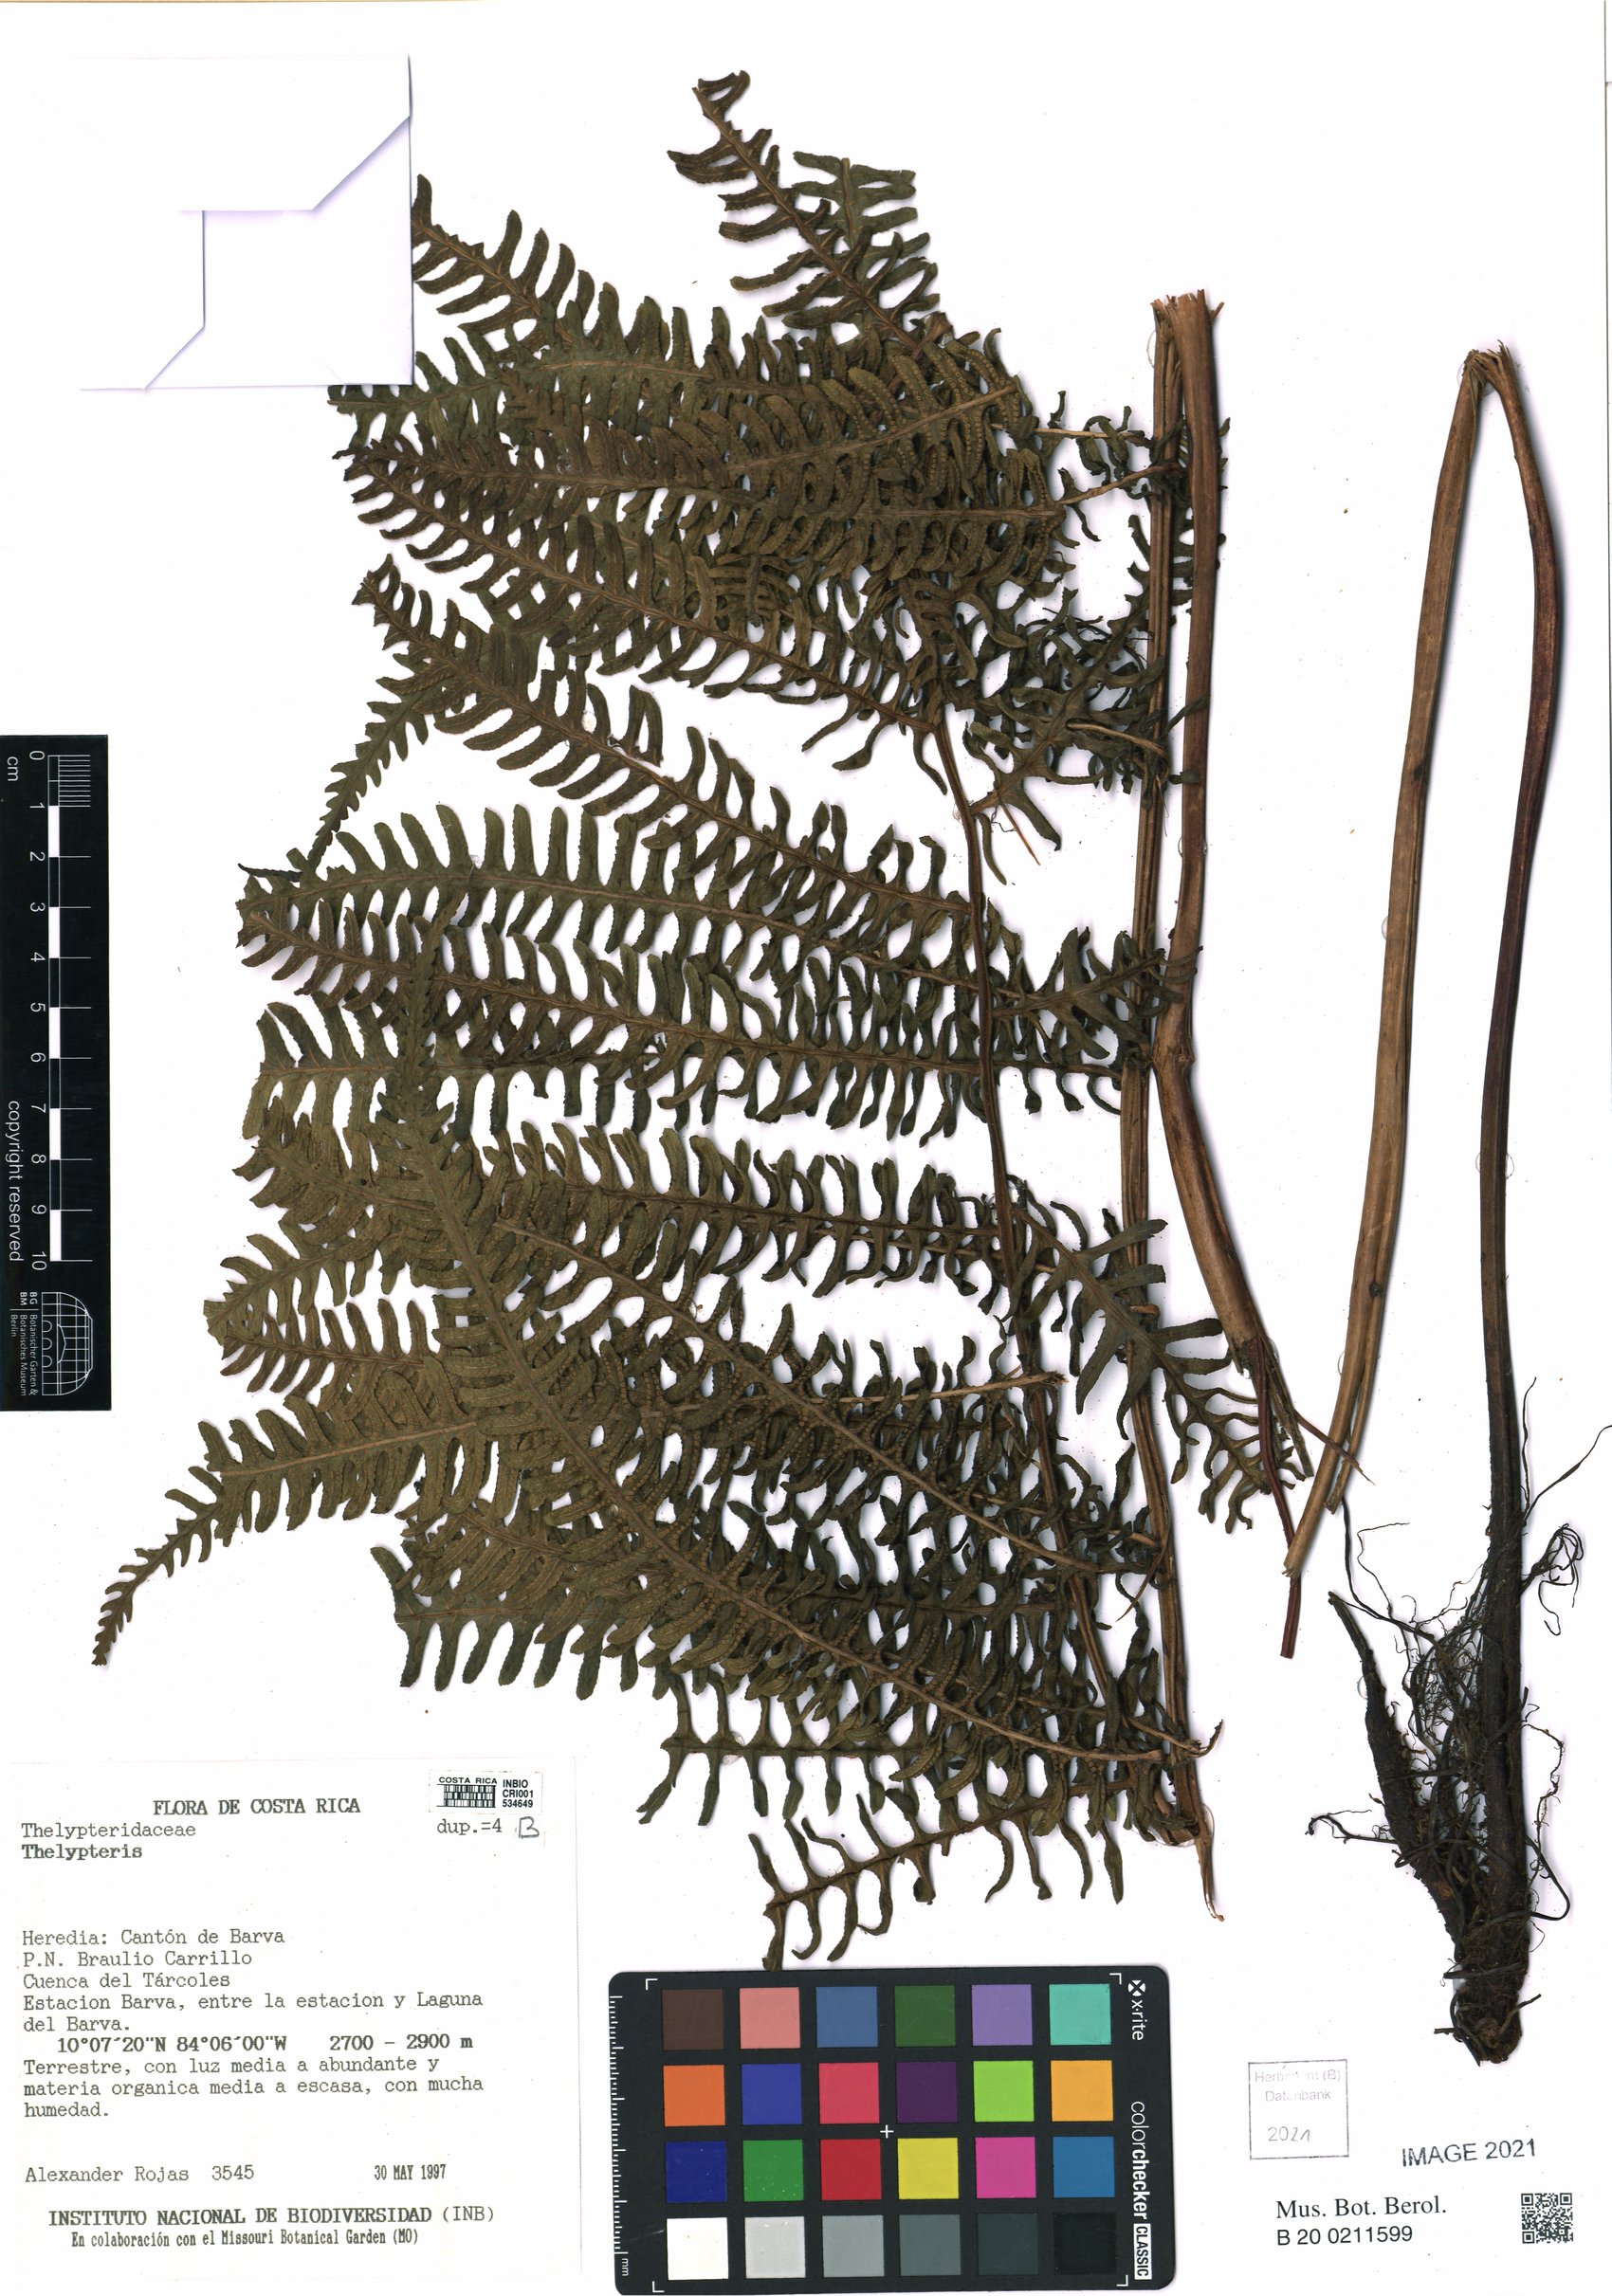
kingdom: Plantae
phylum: Tracheophyta
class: Polypodiopsida
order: Polypodiales
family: Thelypteridaceae
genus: Thelypteris
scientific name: Thelypteris
